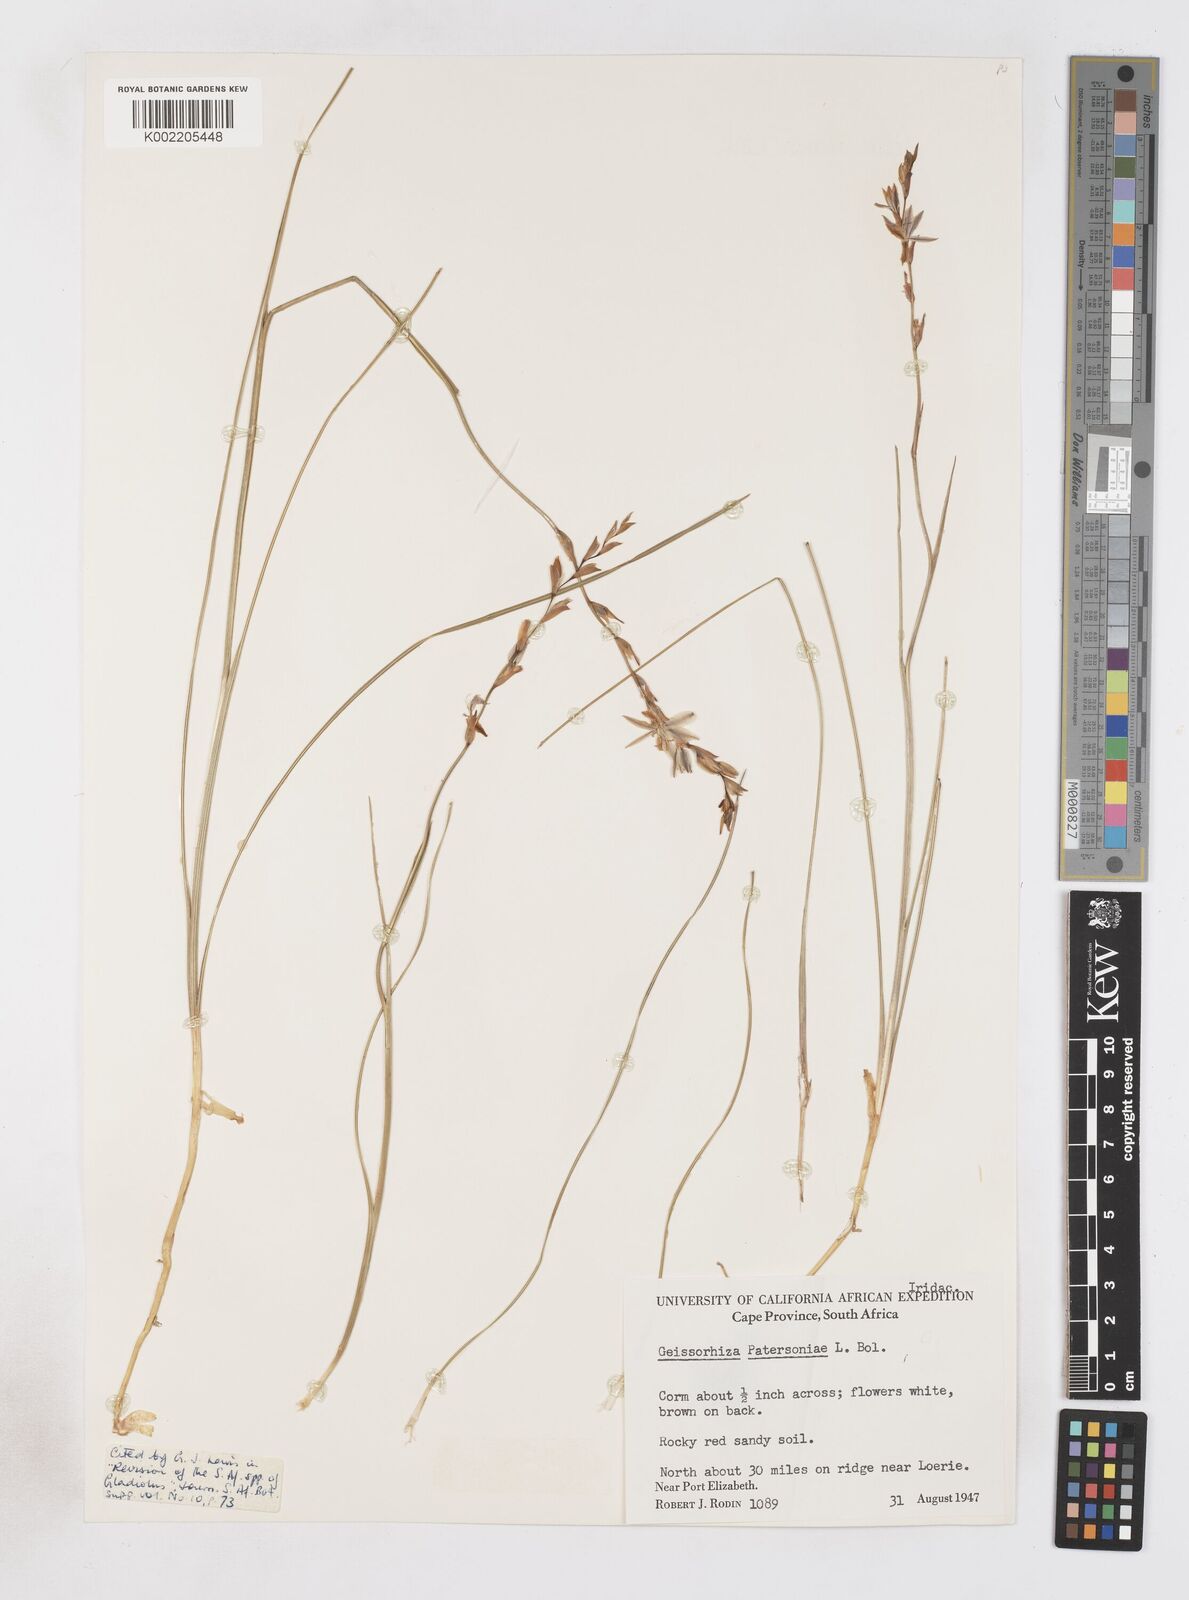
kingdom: Plantae
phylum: Tracheophyta
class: Liliopsida
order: Asparagales
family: Iridaceae
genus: Gladiolus
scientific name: Gladiolus stellatus
